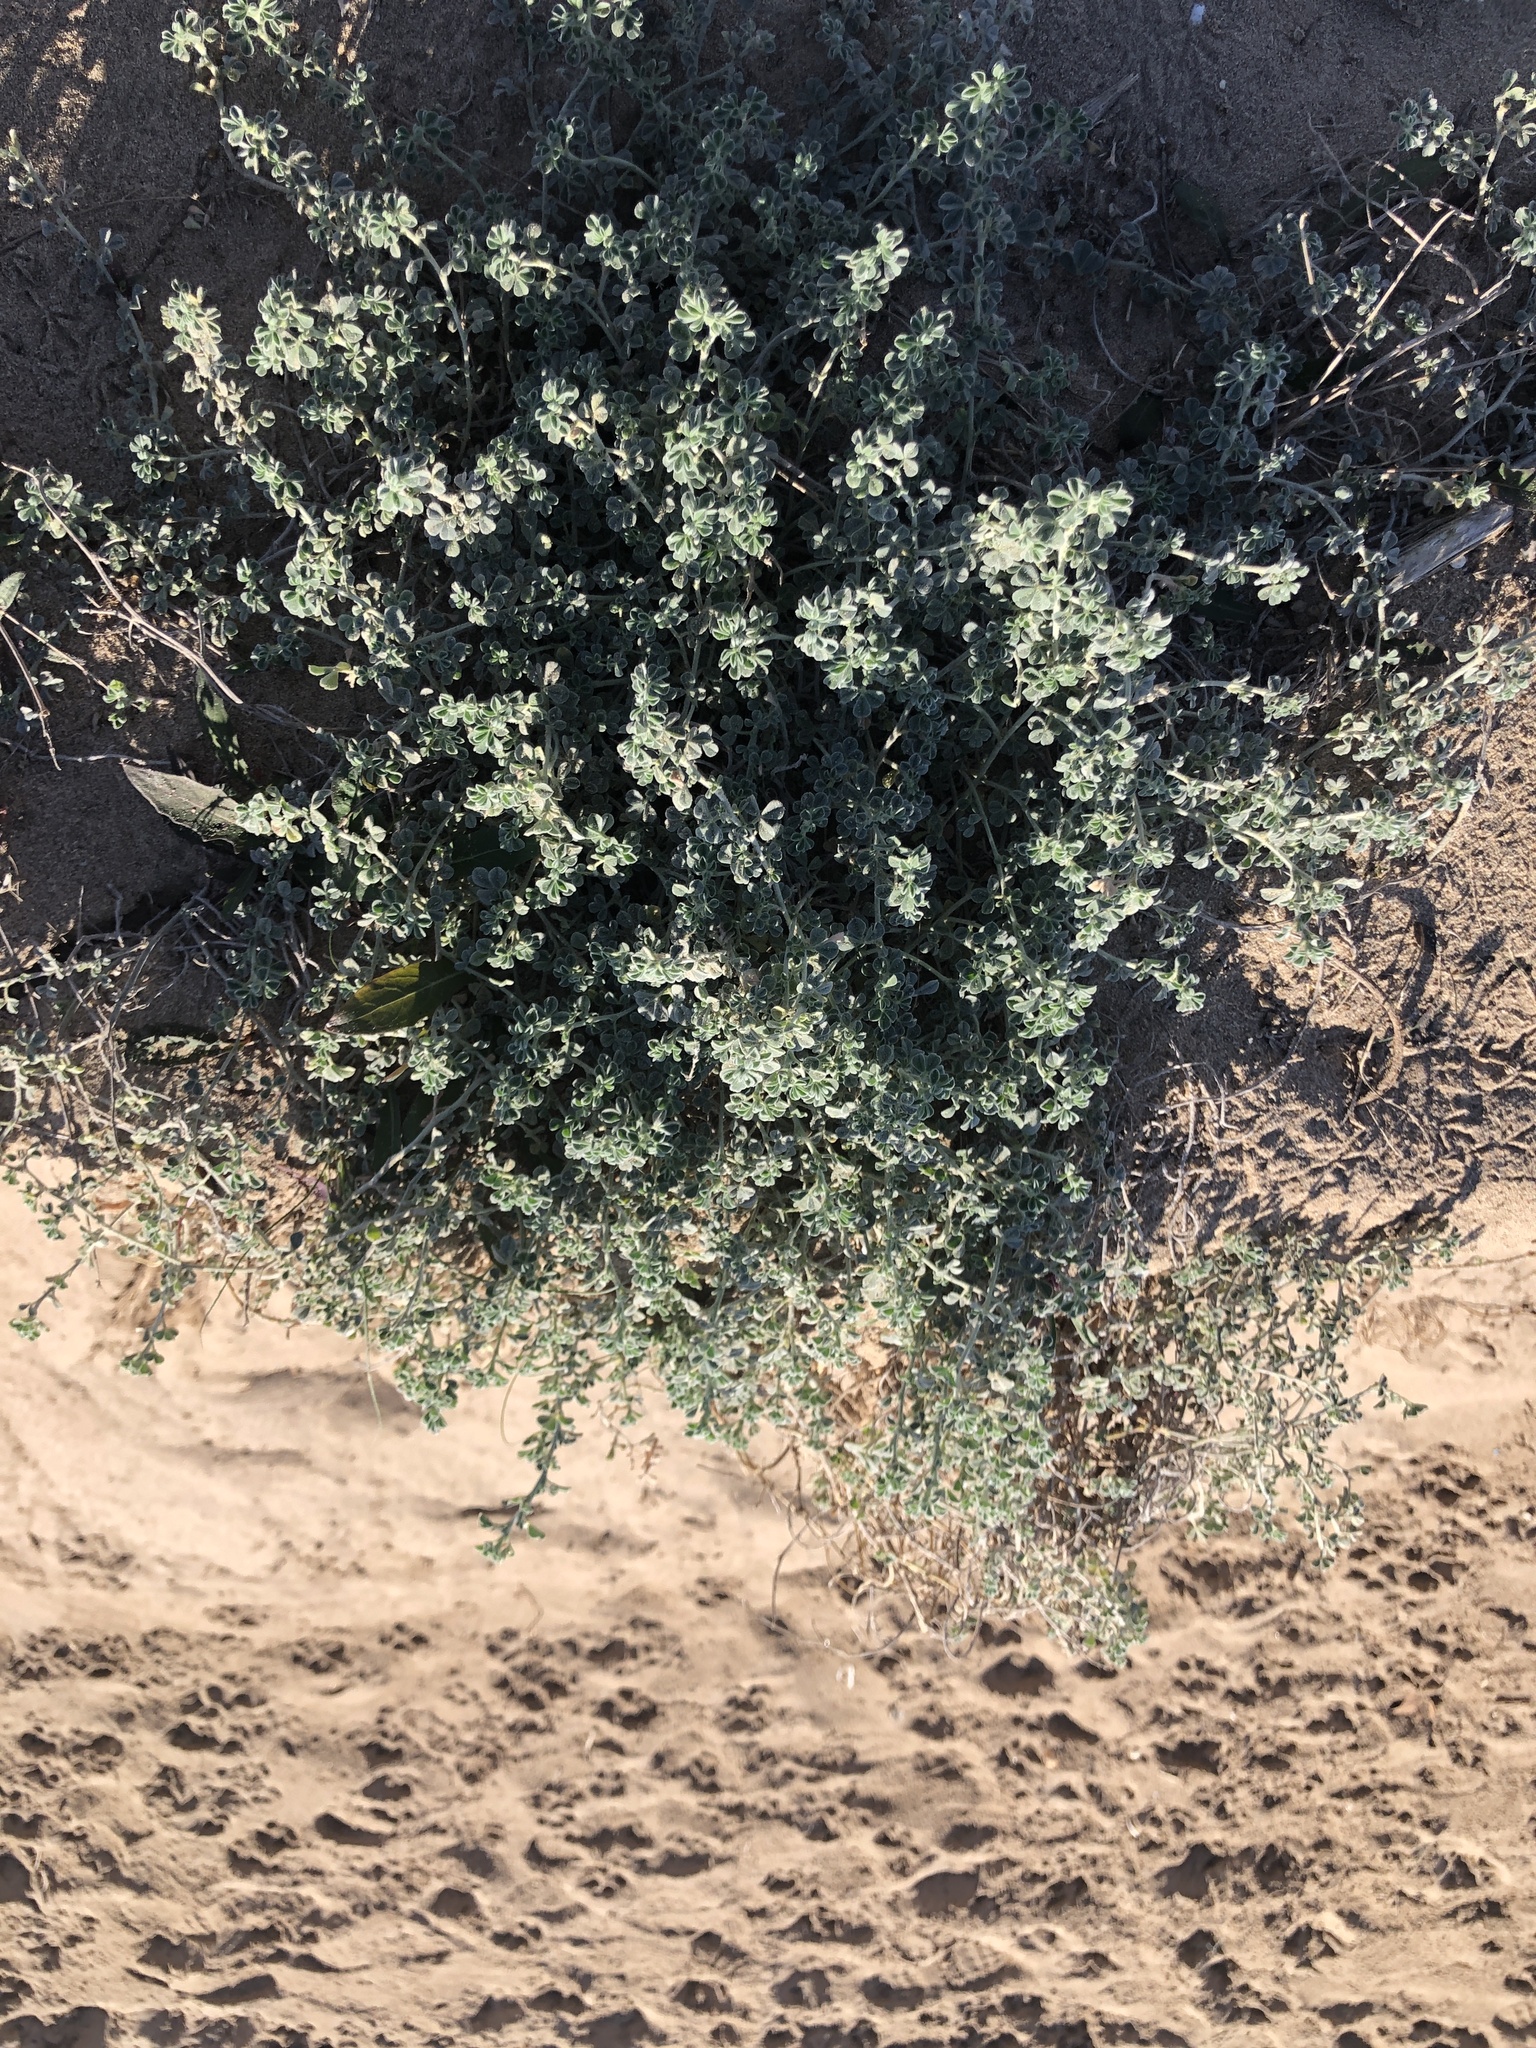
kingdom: Plantae
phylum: Tracheophyta
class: Magnoliopsida
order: Fabales
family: Fabaceae
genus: Medicago
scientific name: Medicago marina
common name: Sea medick
